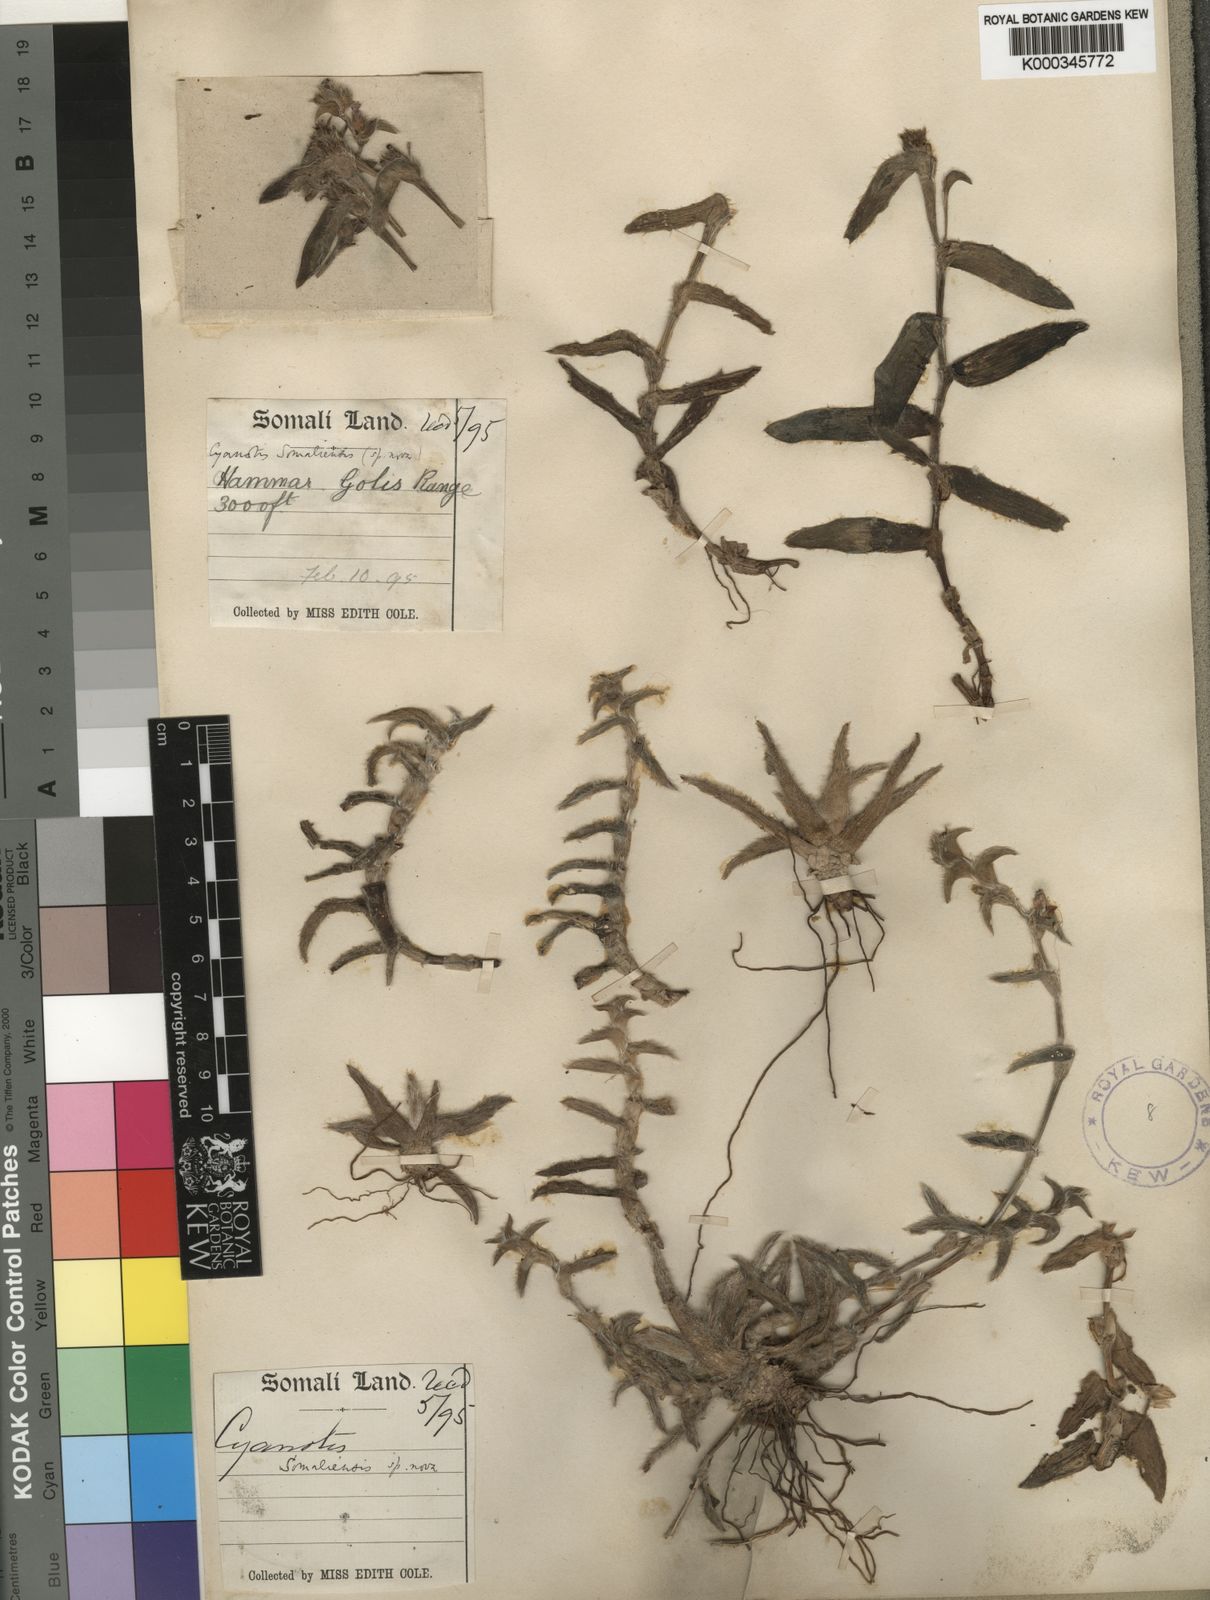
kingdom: Plantae
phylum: Tracheophyta
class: Liliopsida
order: Commelinales
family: Commelinaceae
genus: Cyanotis
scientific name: Cyanotis somaliensis
